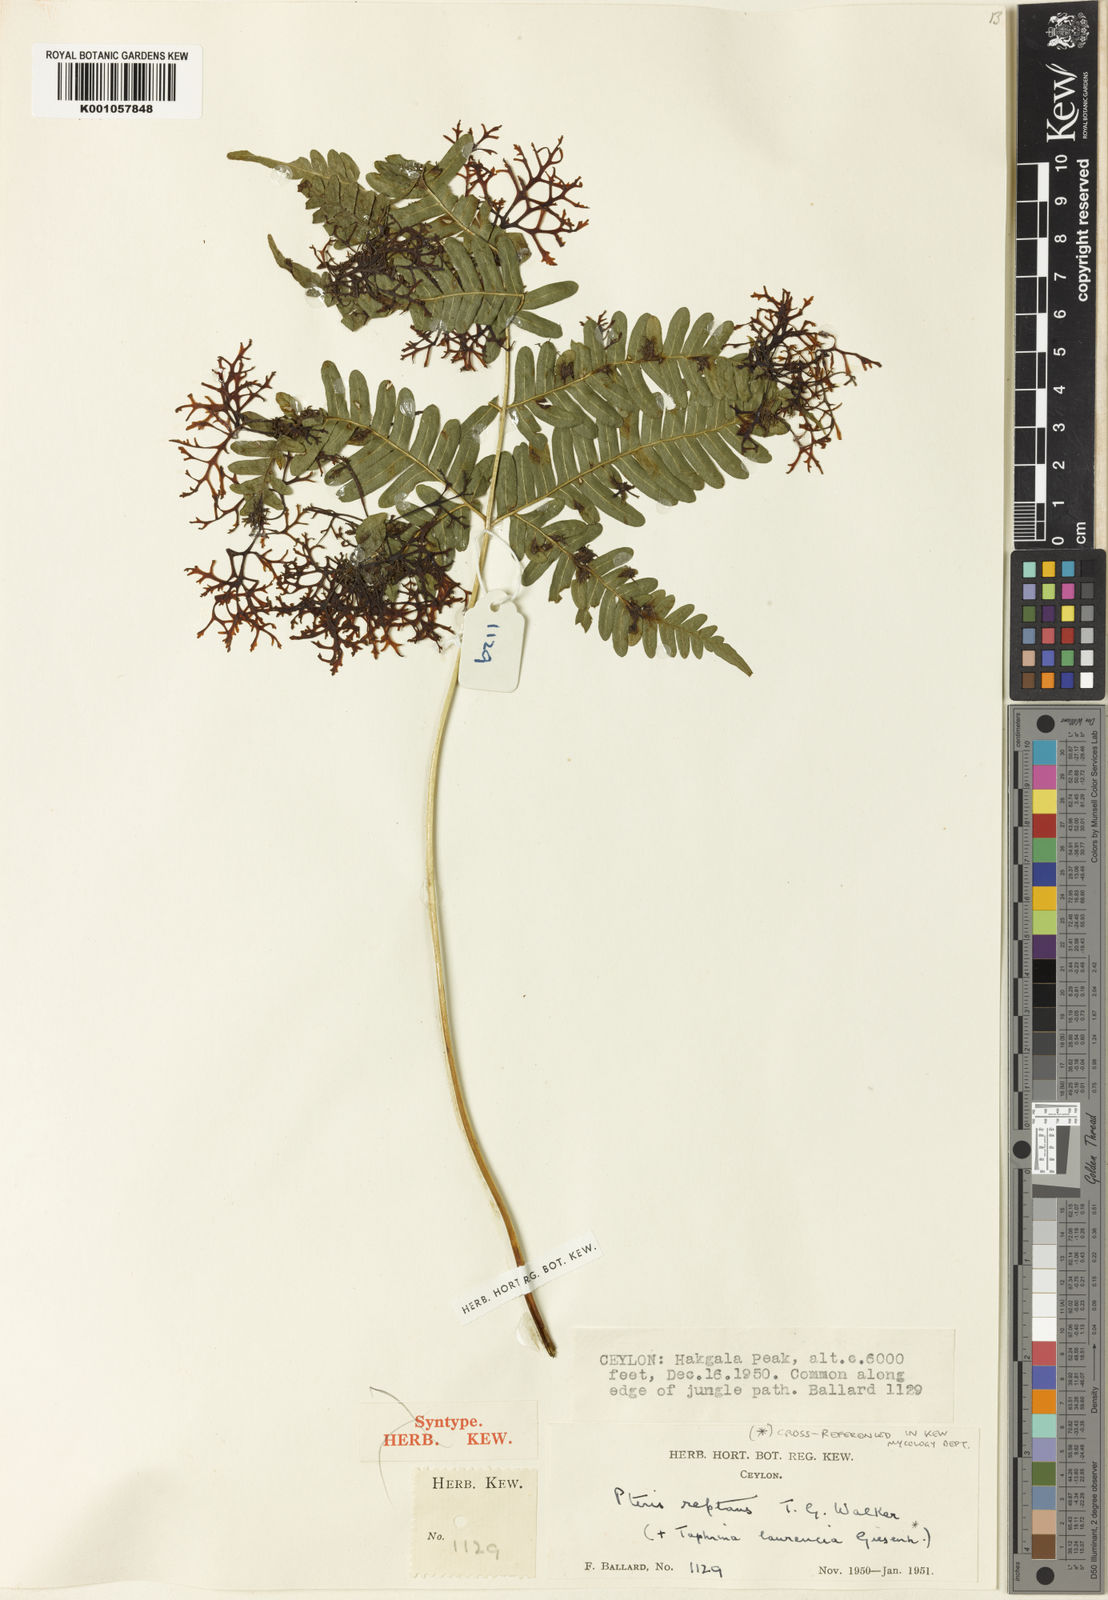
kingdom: Plantae
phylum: Tracheophyta
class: Polypodiopsida
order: Polypodiales
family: Pteridaceae
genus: Pteris
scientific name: Pteris reptans
